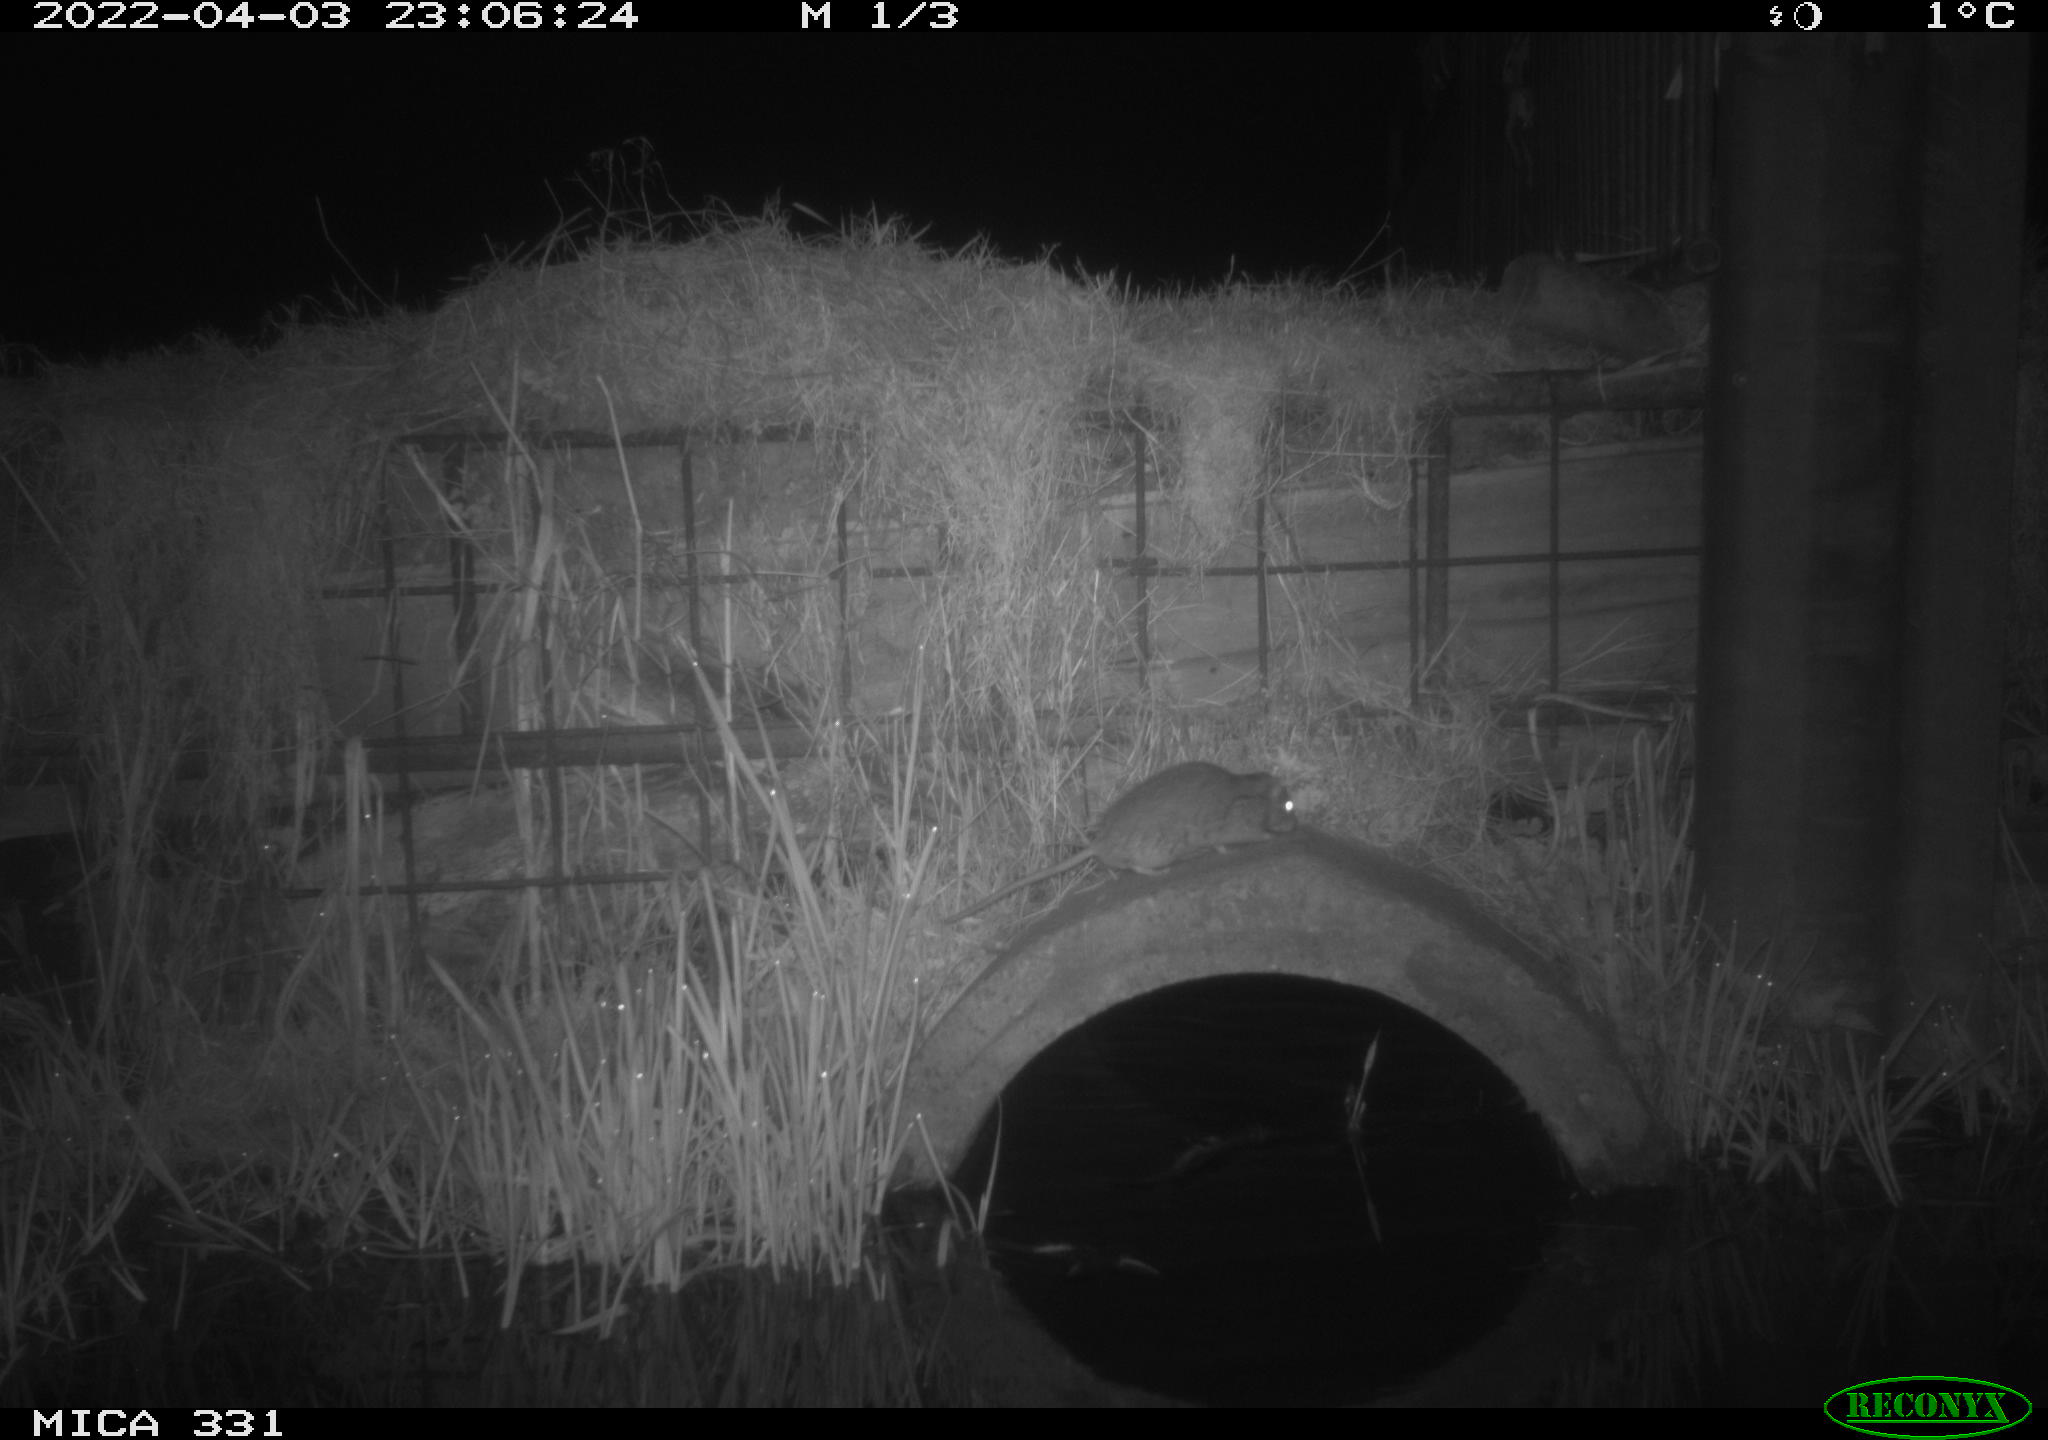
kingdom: Animalia
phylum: Chordata
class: Mammalia
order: Rodentia
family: Muridae
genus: Rattus
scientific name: Rattus norvegicus
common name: Brown rat
